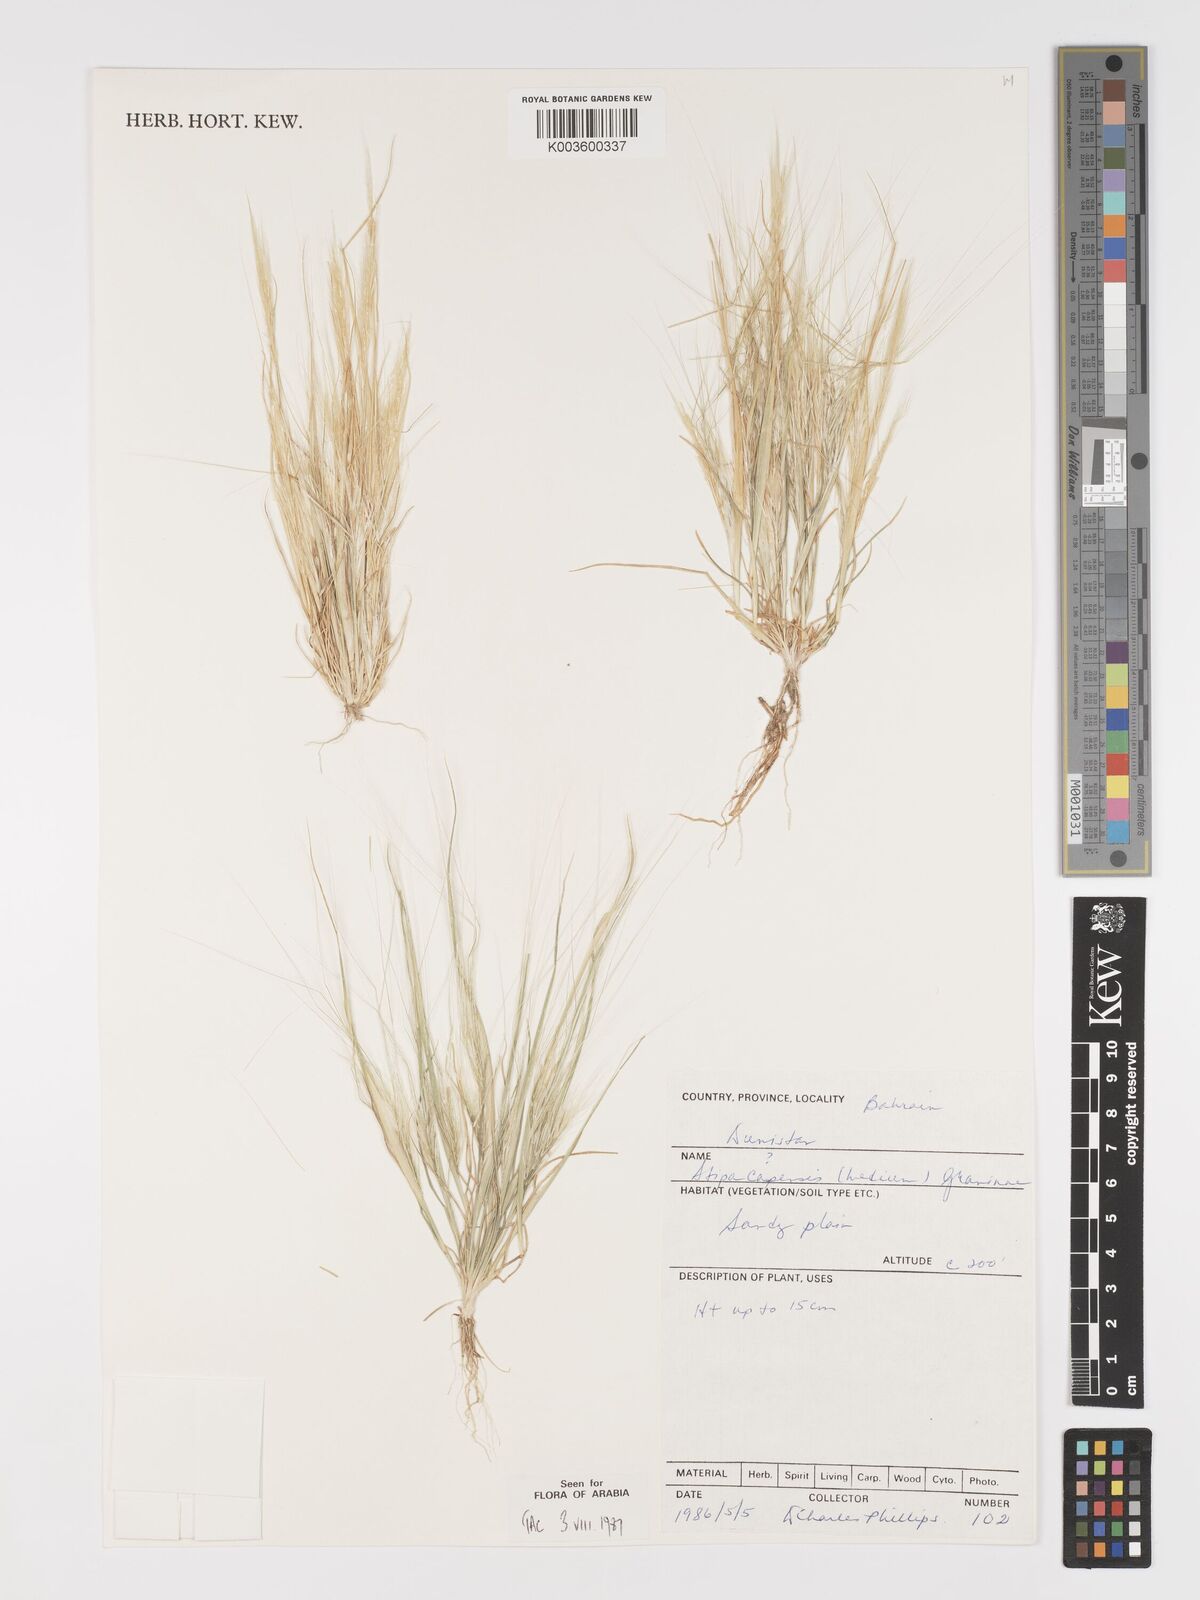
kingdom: Plantae
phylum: Tracheophyta
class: Liliopsida
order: Poales
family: Poaceae
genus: Stipellula
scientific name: Stipellula capensis
